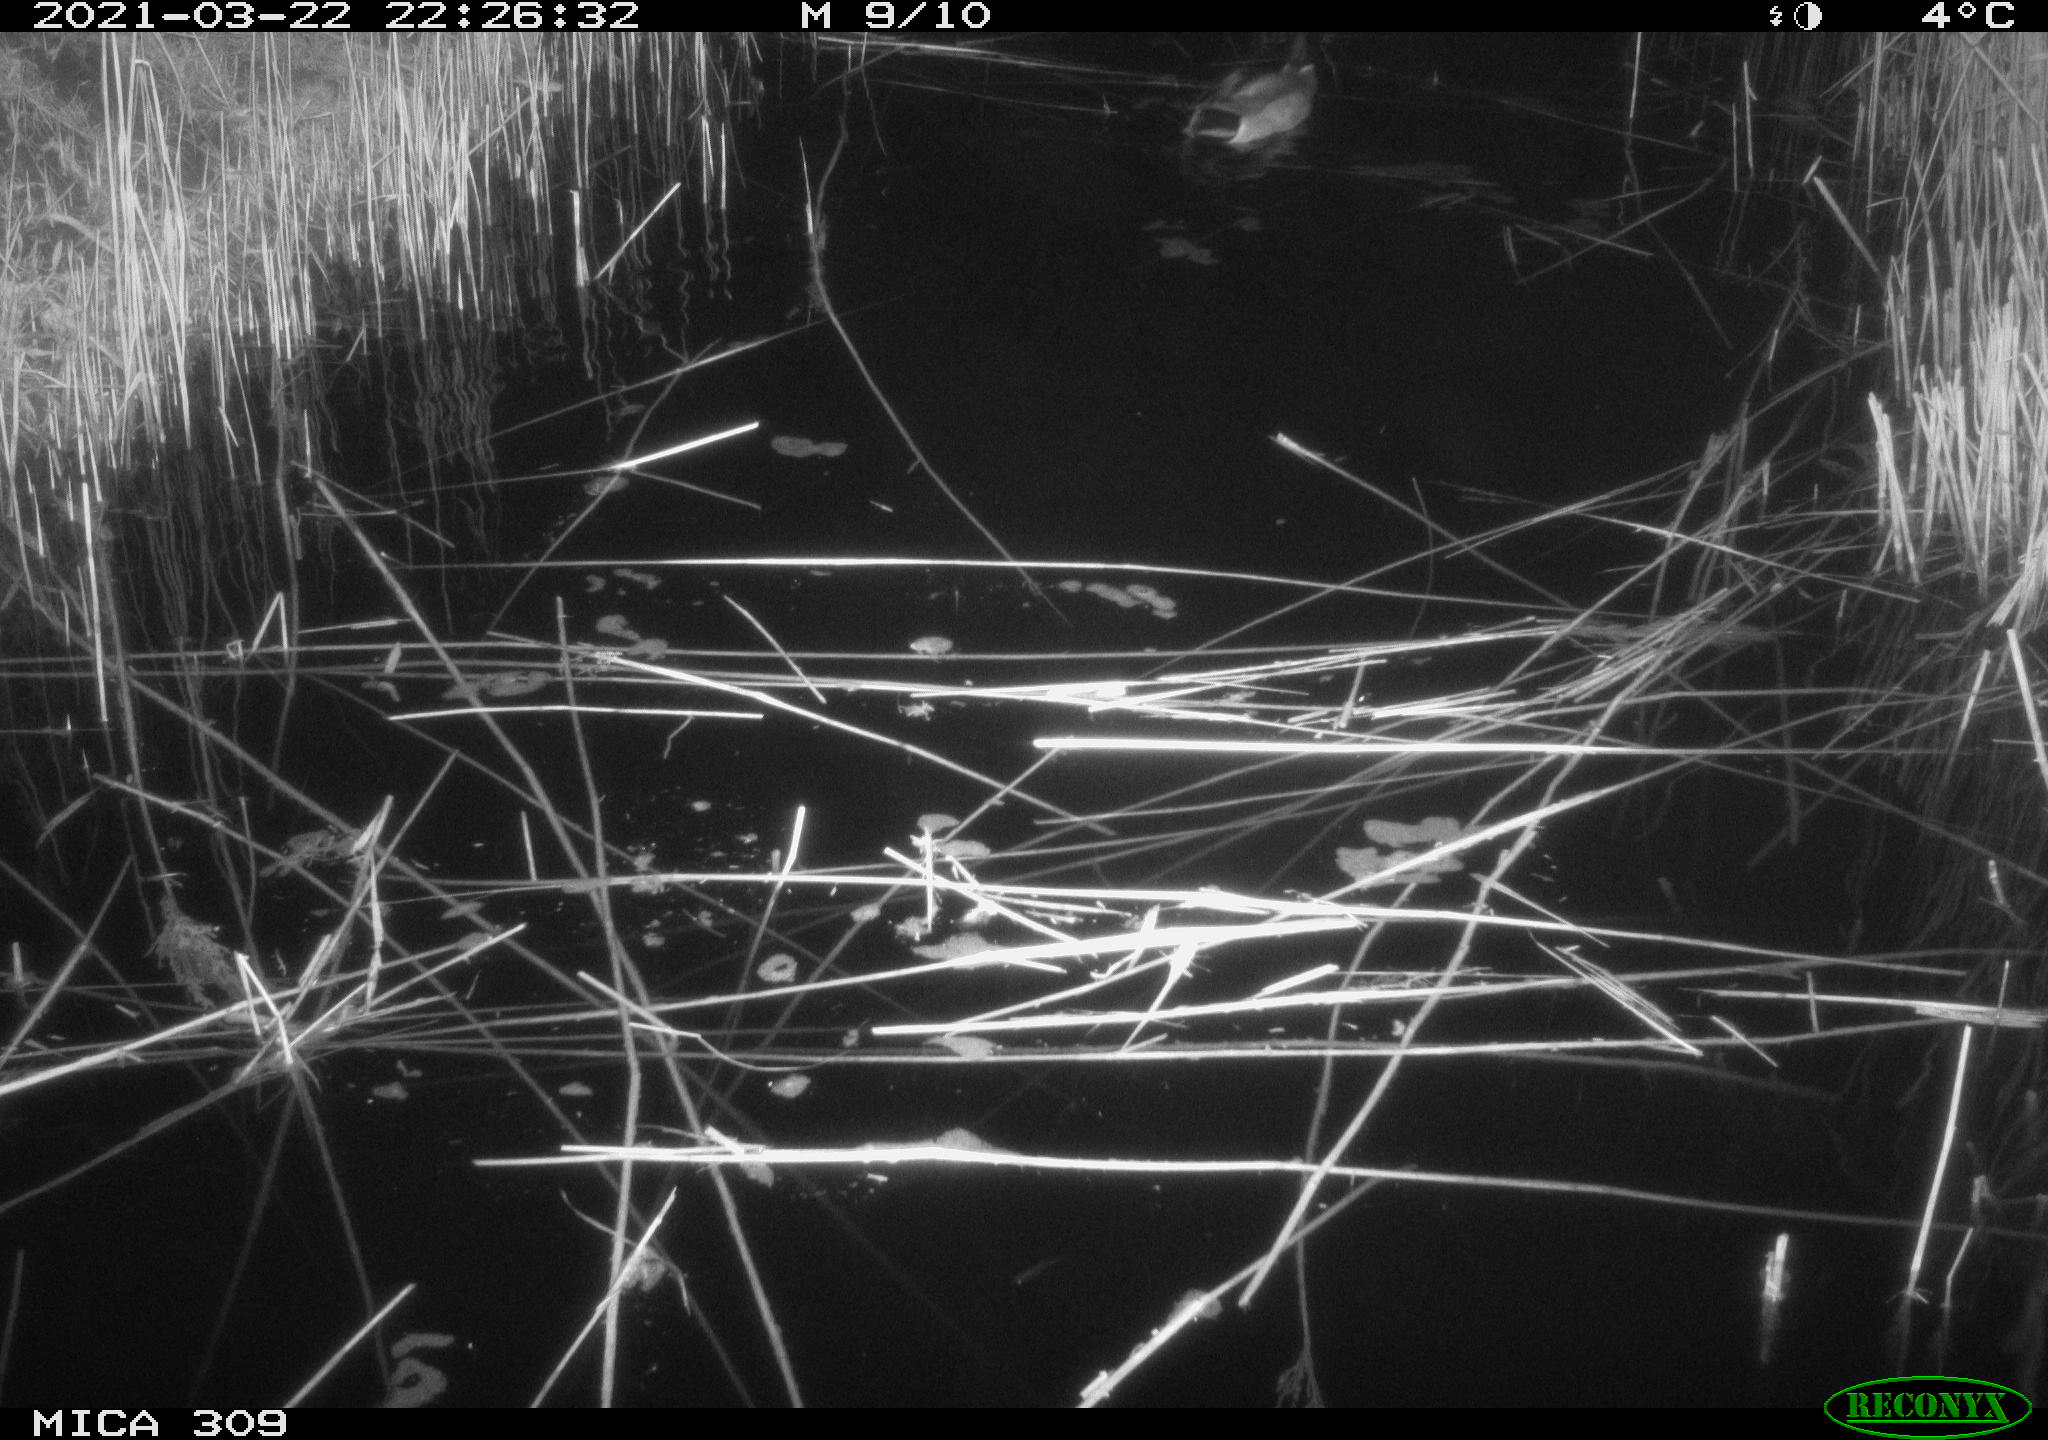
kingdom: Animalia
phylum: Chordata
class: Aves
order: Anseriformes
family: Anatidae
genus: Anas
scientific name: Anas platyrhynchos
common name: Mallard
